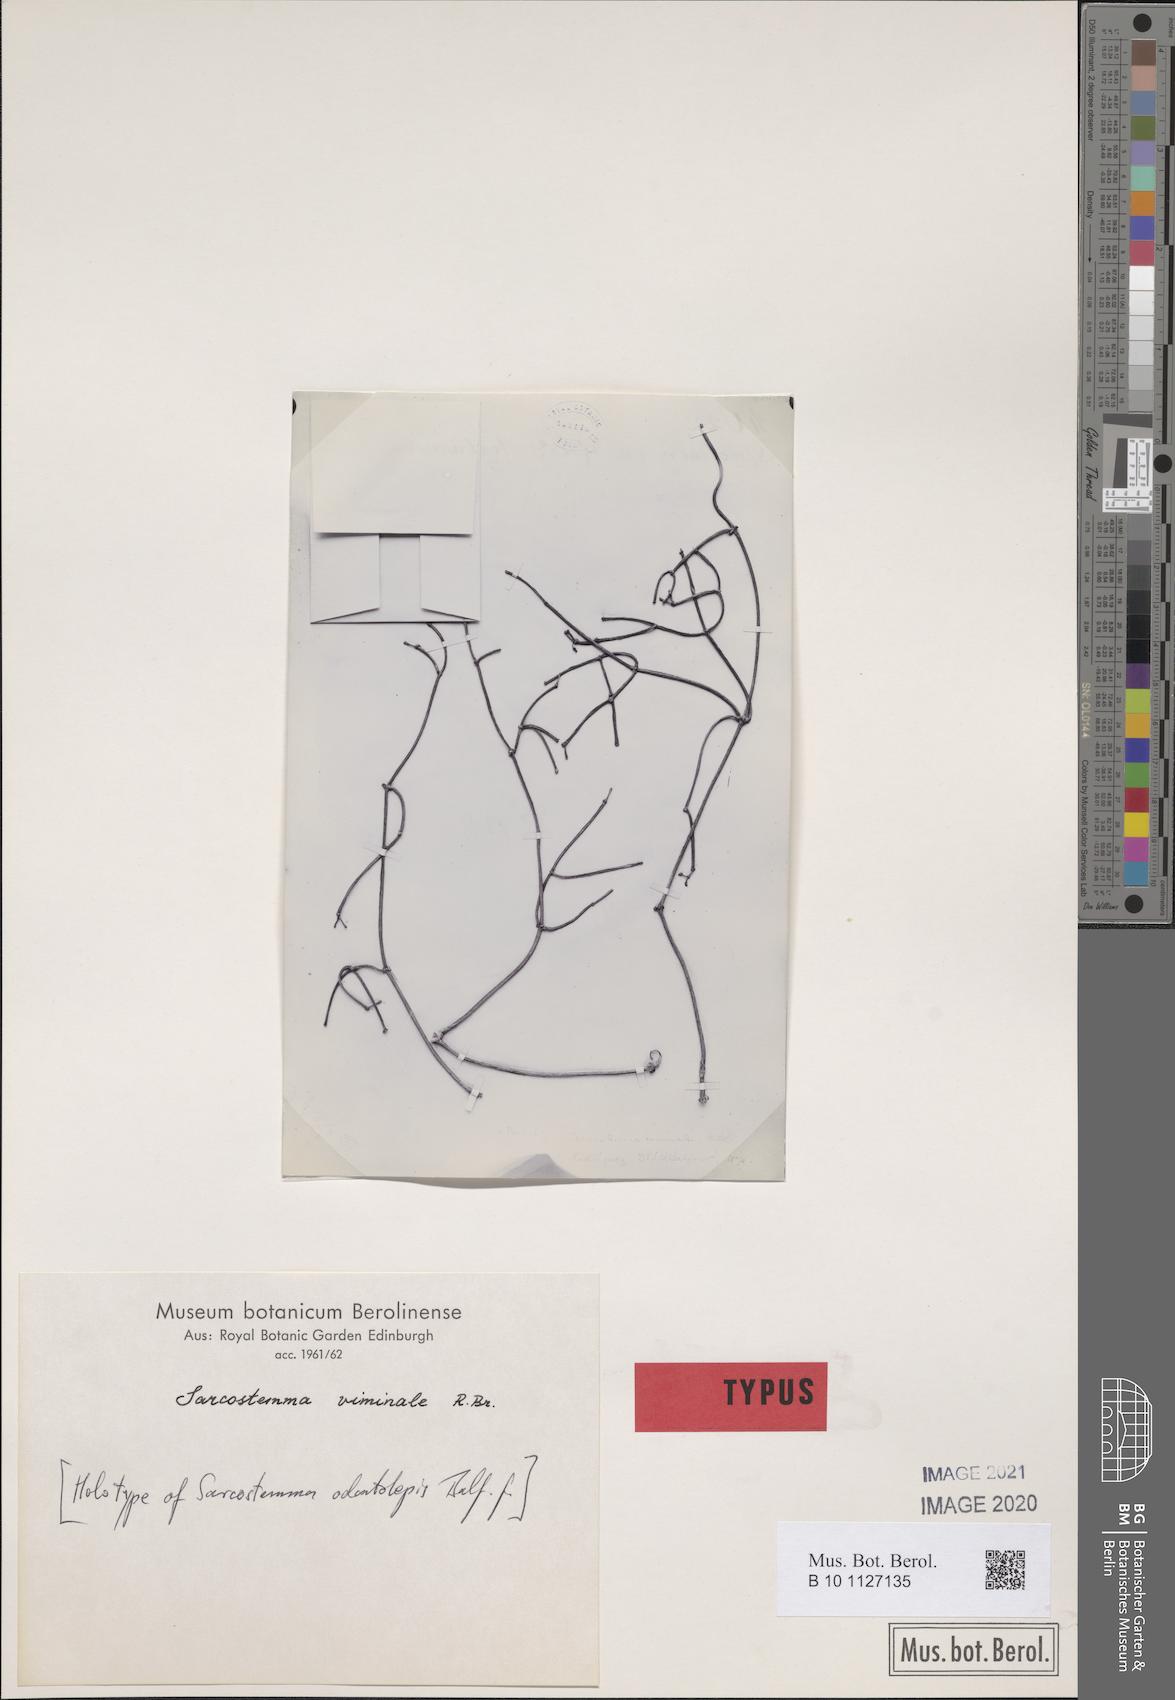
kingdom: Plantae
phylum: Tracheophyta
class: Magnoliopsida
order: Gentianales
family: Apocynaceae
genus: Cynanchum
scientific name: Cynanchum viminale
